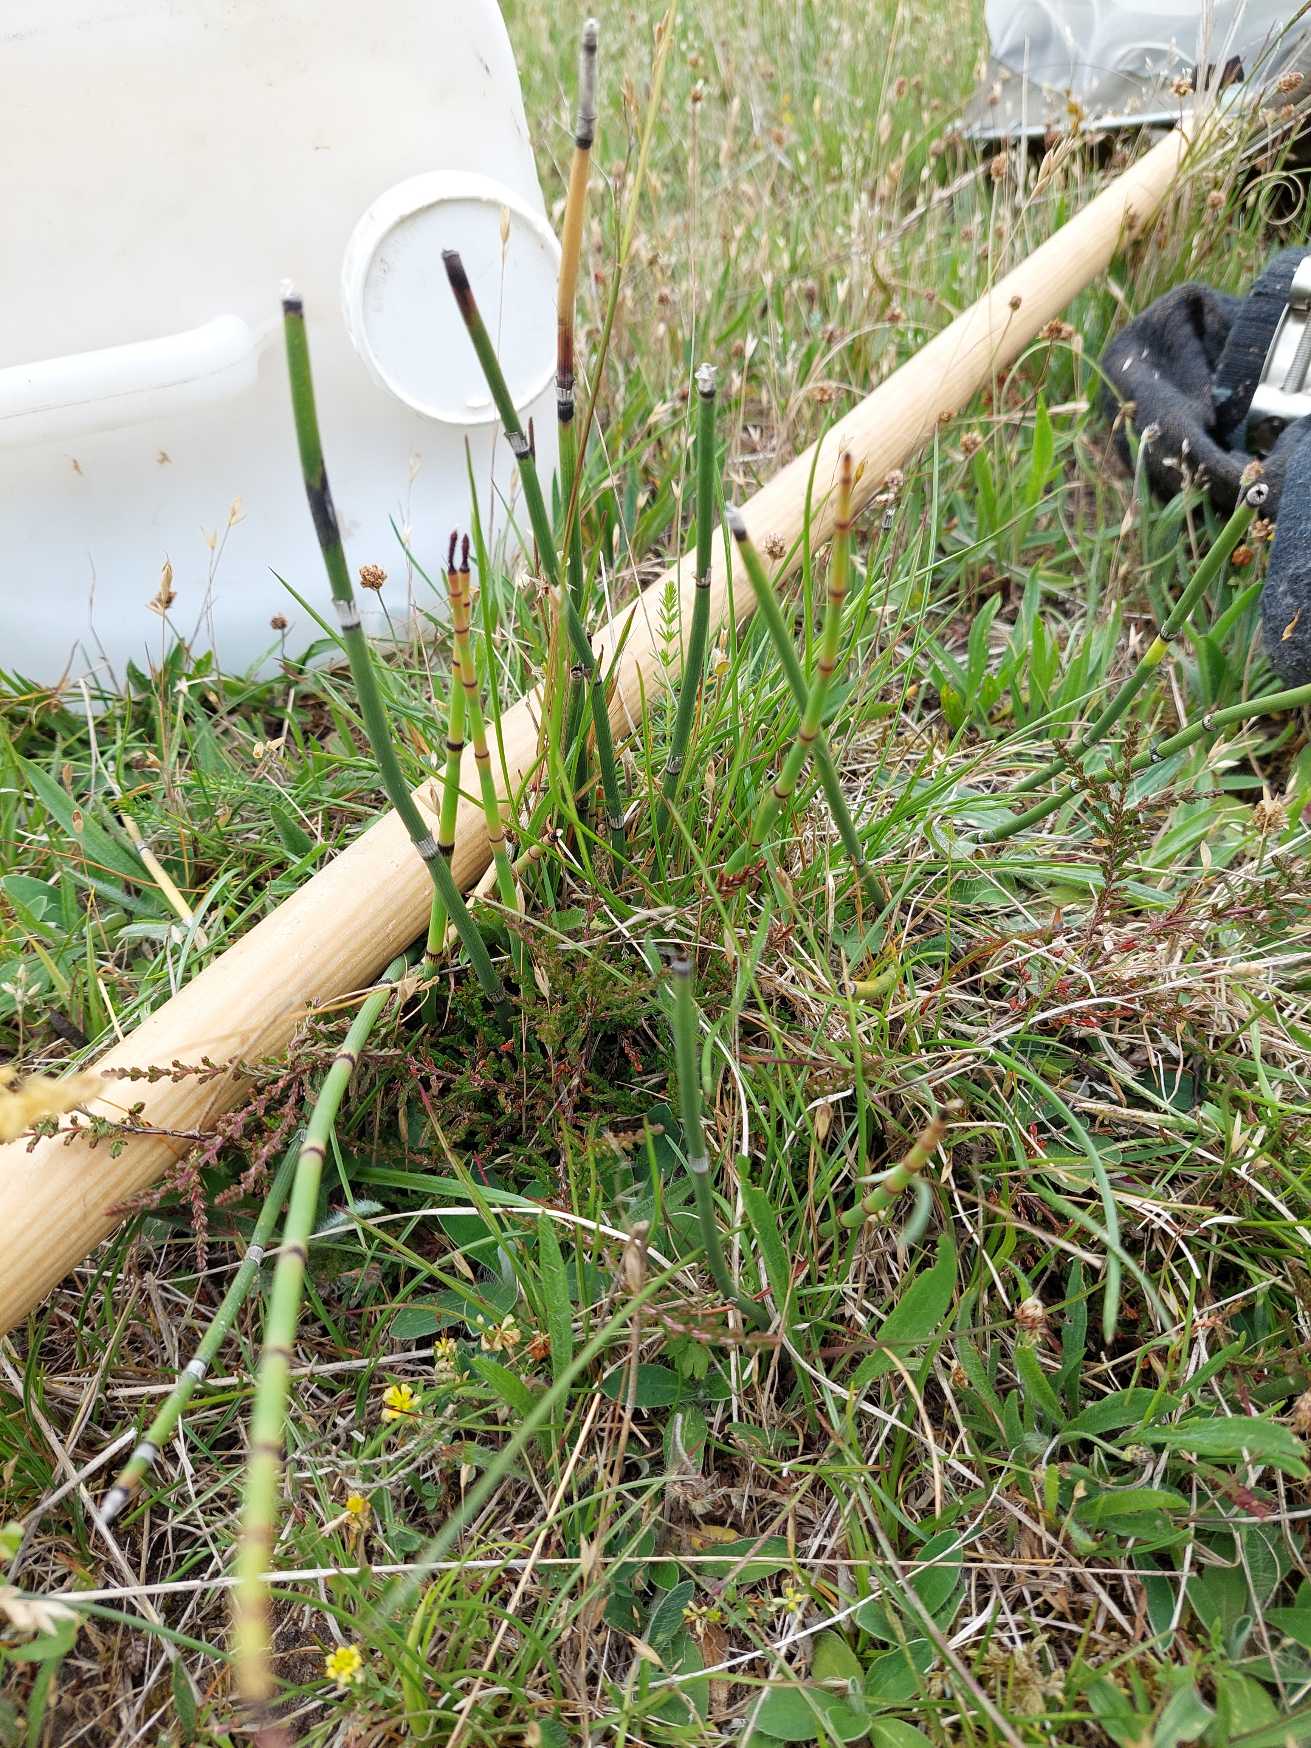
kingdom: Plantae
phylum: Tracheophyta
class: Polypodiopsida
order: Equisetales
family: Equisetaceae
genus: Equisetum
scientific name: Equisetum hyemale
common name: Skavgræs
